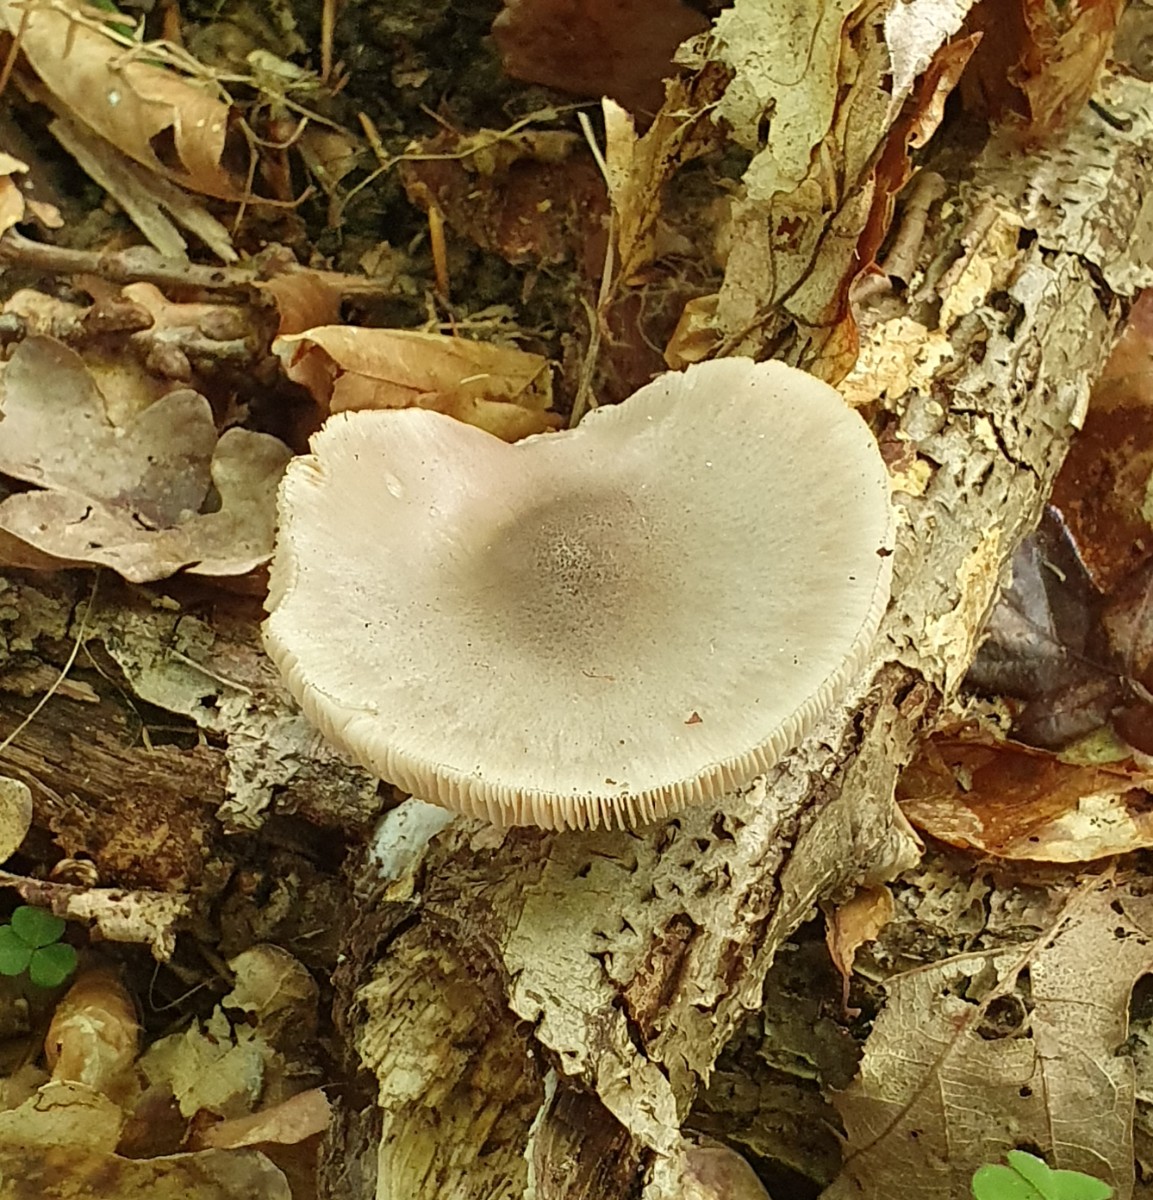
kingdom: Fungi
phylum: Basidiomycota
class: Agaricomycetes
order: Agaricales
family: Pluteaceae
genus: Pluteus
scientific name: Pluteus salicinus
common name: stiv skærmhat
